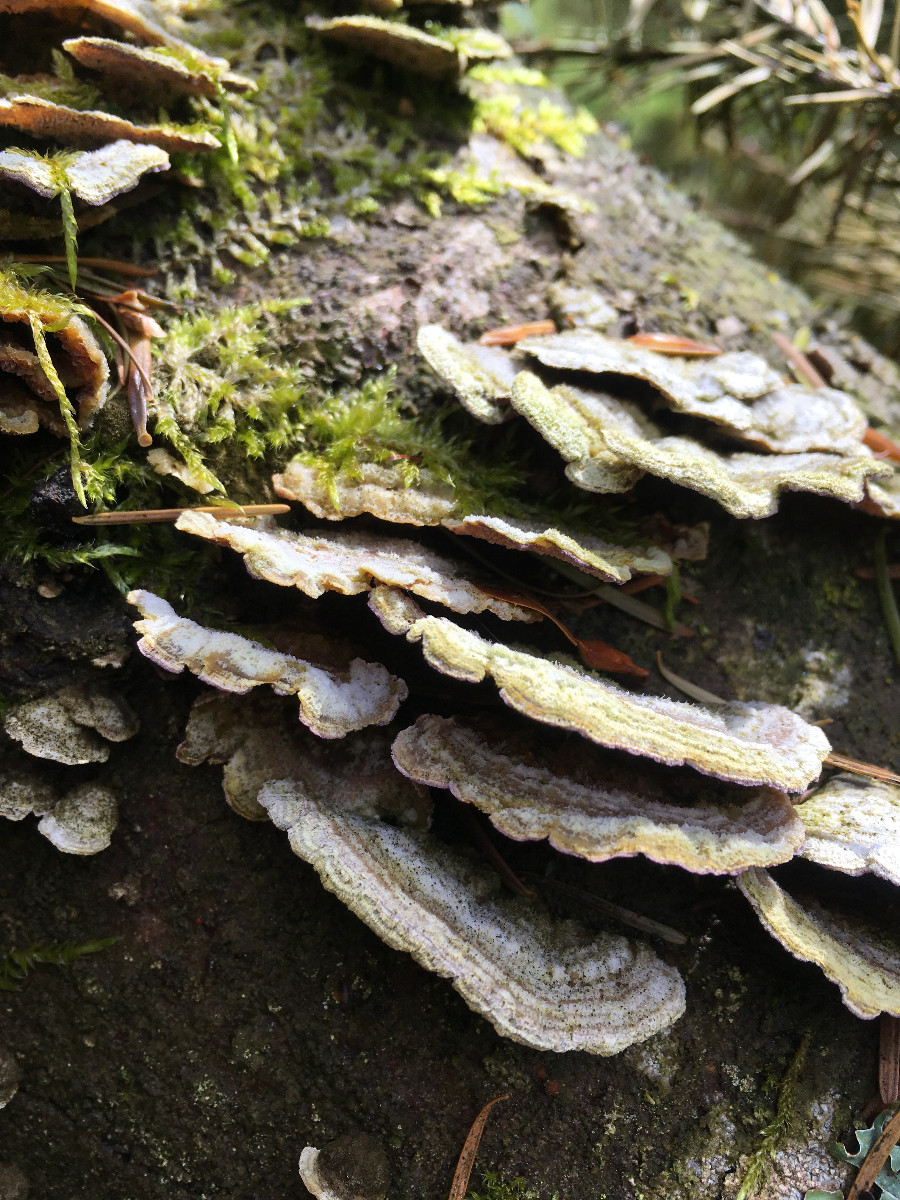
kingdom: Fungi
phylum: Basidiomycota
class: Agaricomycetes
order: Hymenochaetales
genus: Trichaptum
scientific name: Trichaptum abietinum
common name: almindelig violporesvamp
